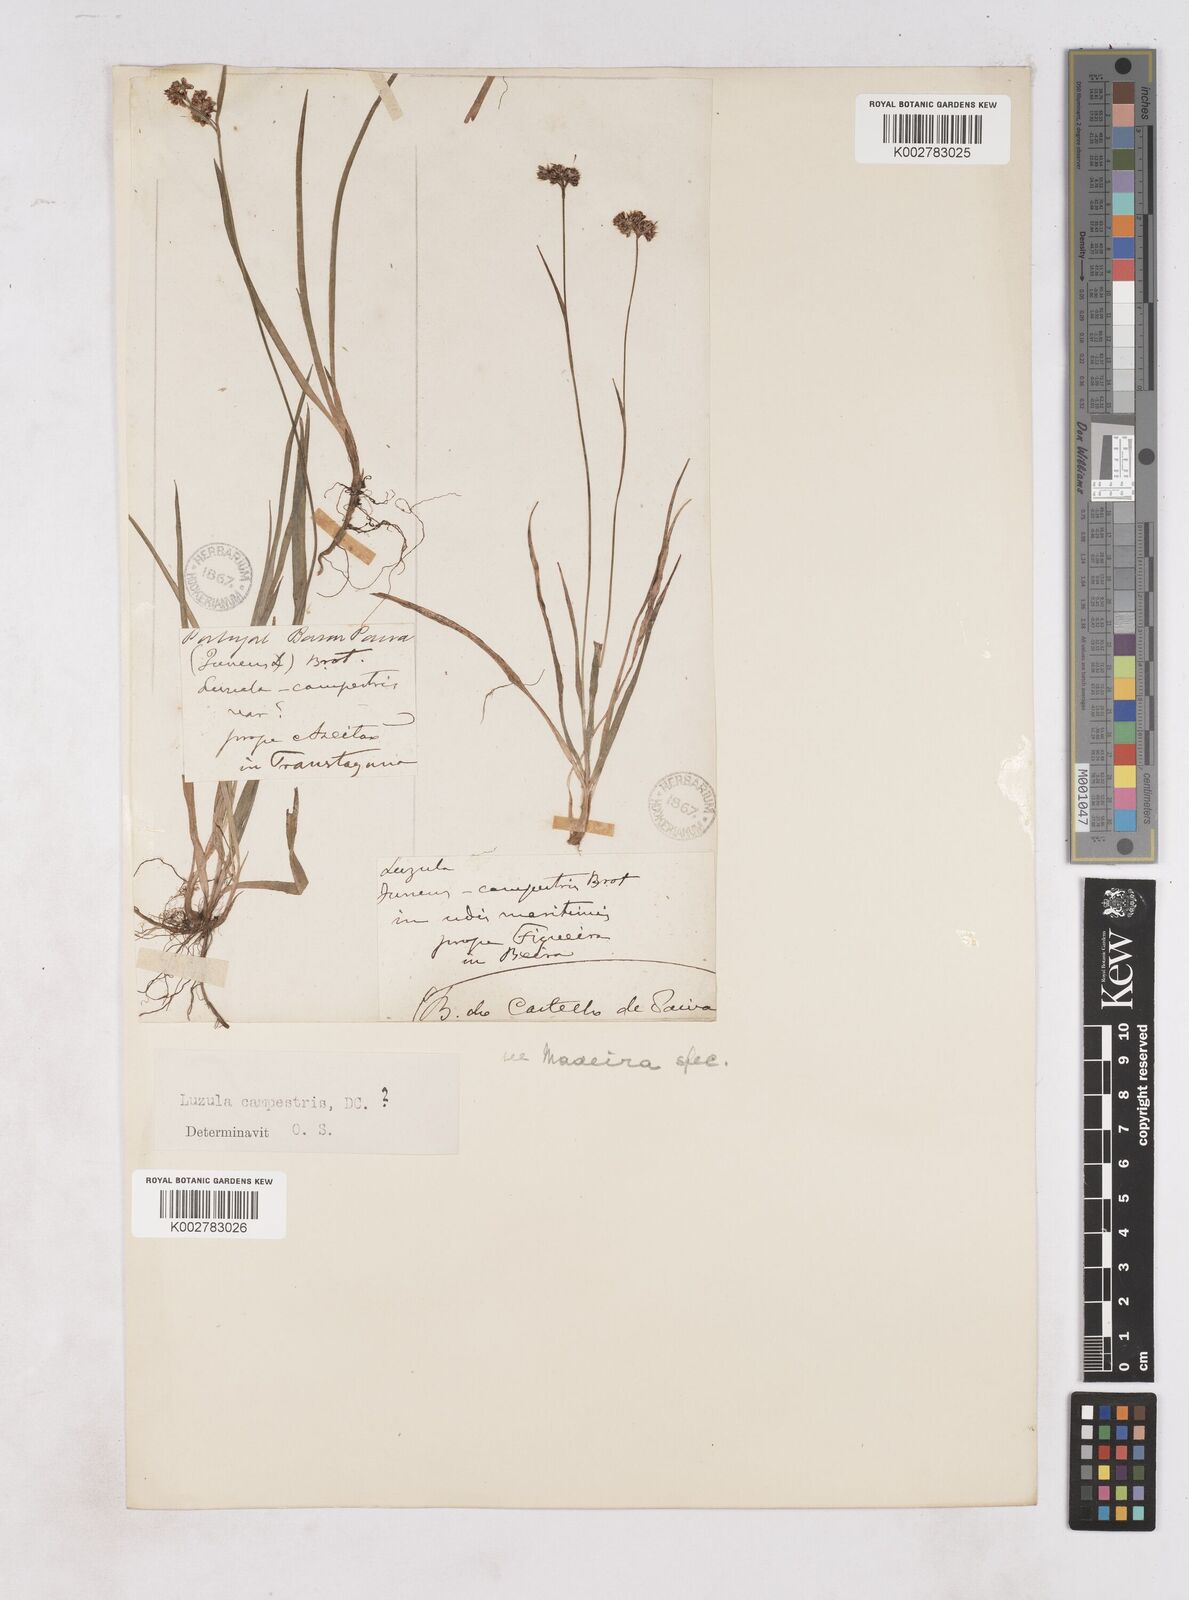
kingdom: Plantae
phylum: Tracheophyta
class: Liliopsida
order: Poales
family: Juncaceae
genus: Luzula
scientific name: Luzula campestris
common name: Field wood-rush
